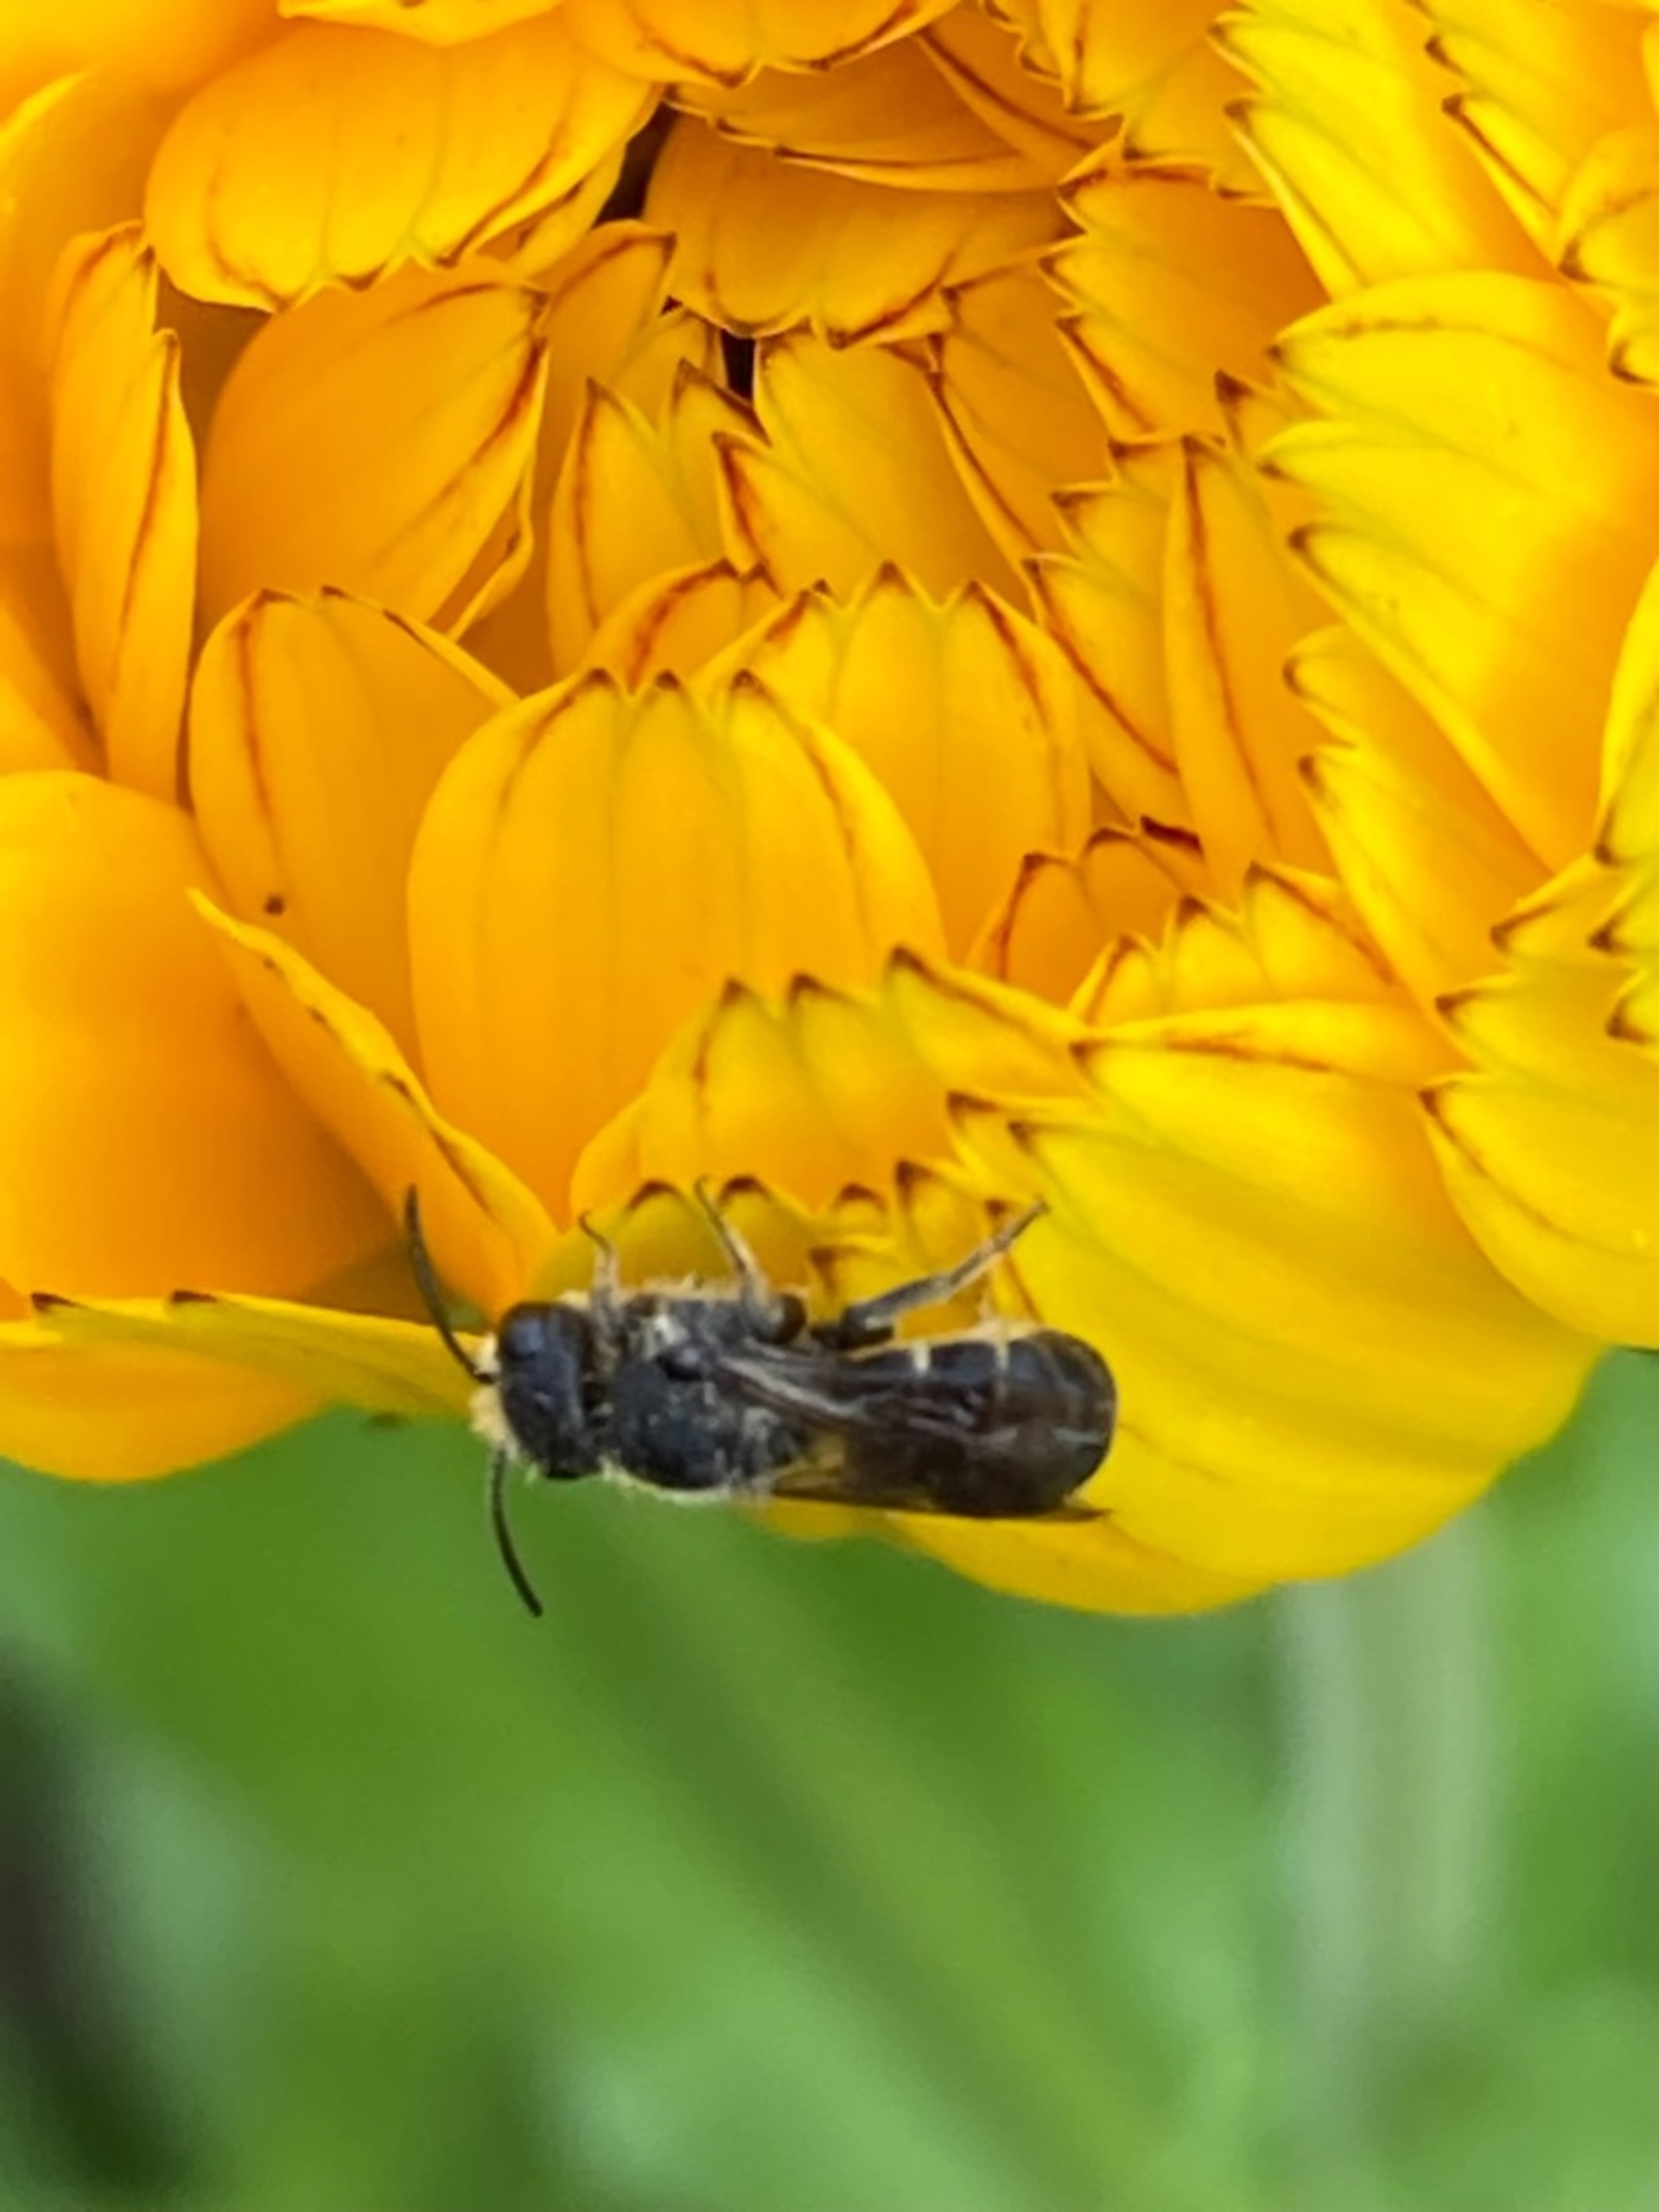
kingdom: Animalia
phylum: Arthropoda
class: Insecta
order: Hymenoptera
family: Megachilidae
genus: Heriades
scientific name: Heriades truncorum
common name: Hulbi
